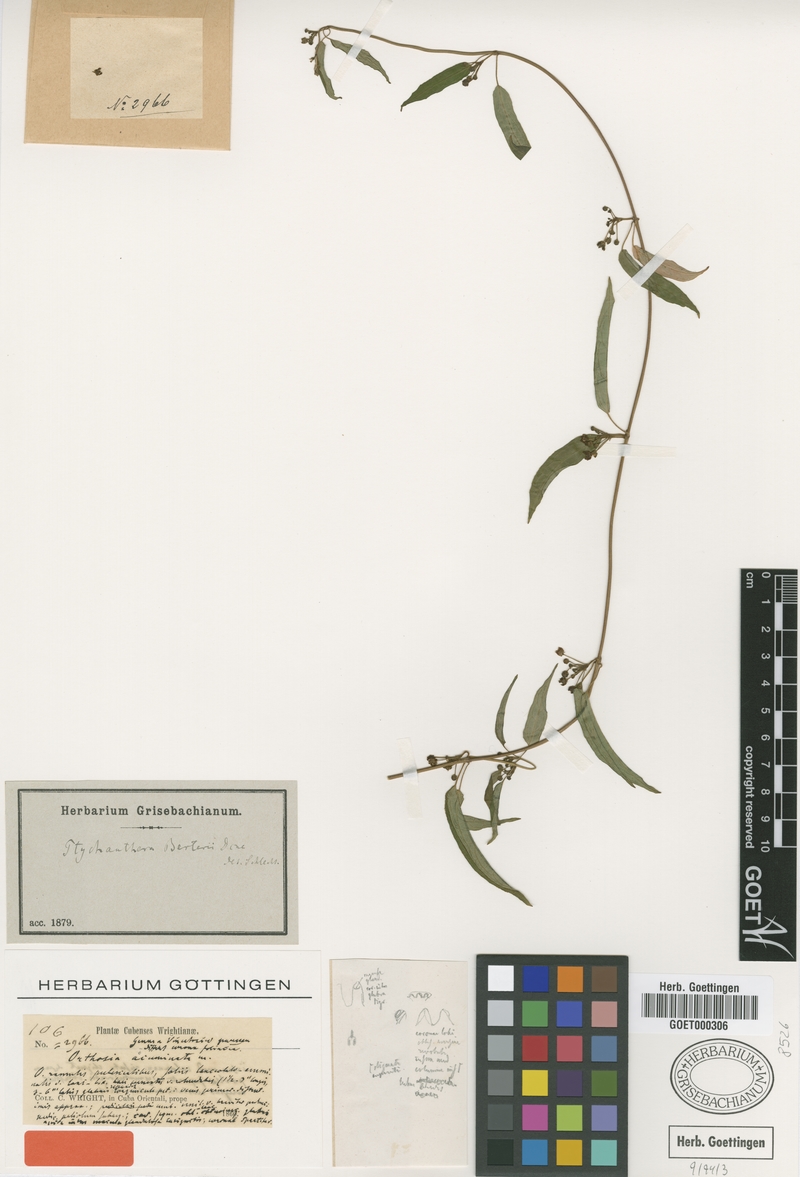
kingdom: Plantae
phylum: Tracheophyta
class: Magnoliopsida
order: Gentianales
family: Apocynaceae
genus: Poicillopsis
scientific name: Poicillopsis acuminata
